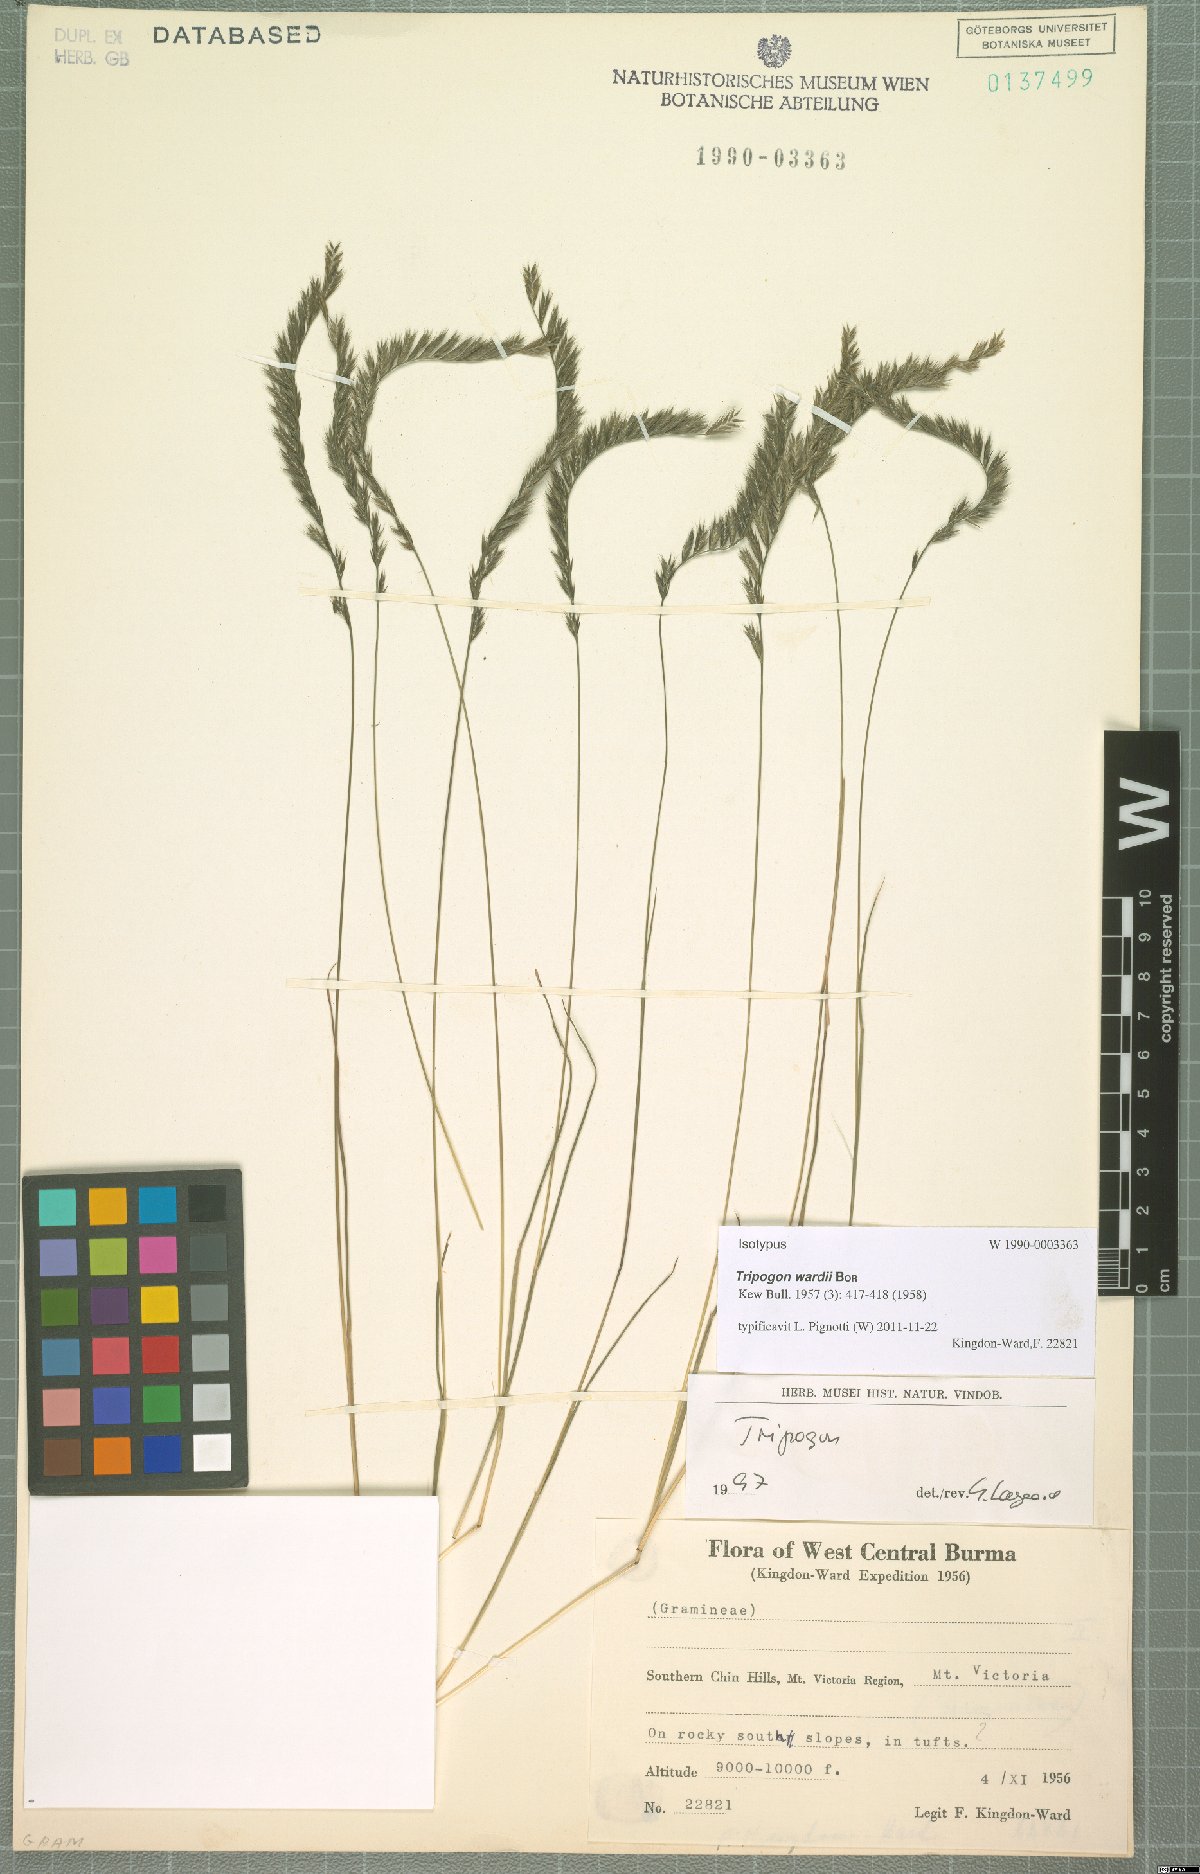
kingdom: Plantae
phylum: Tracheophyta
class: Liliopsida
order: Poales
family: Poaceae
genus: Tripogon
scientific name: Tripogon wardii
